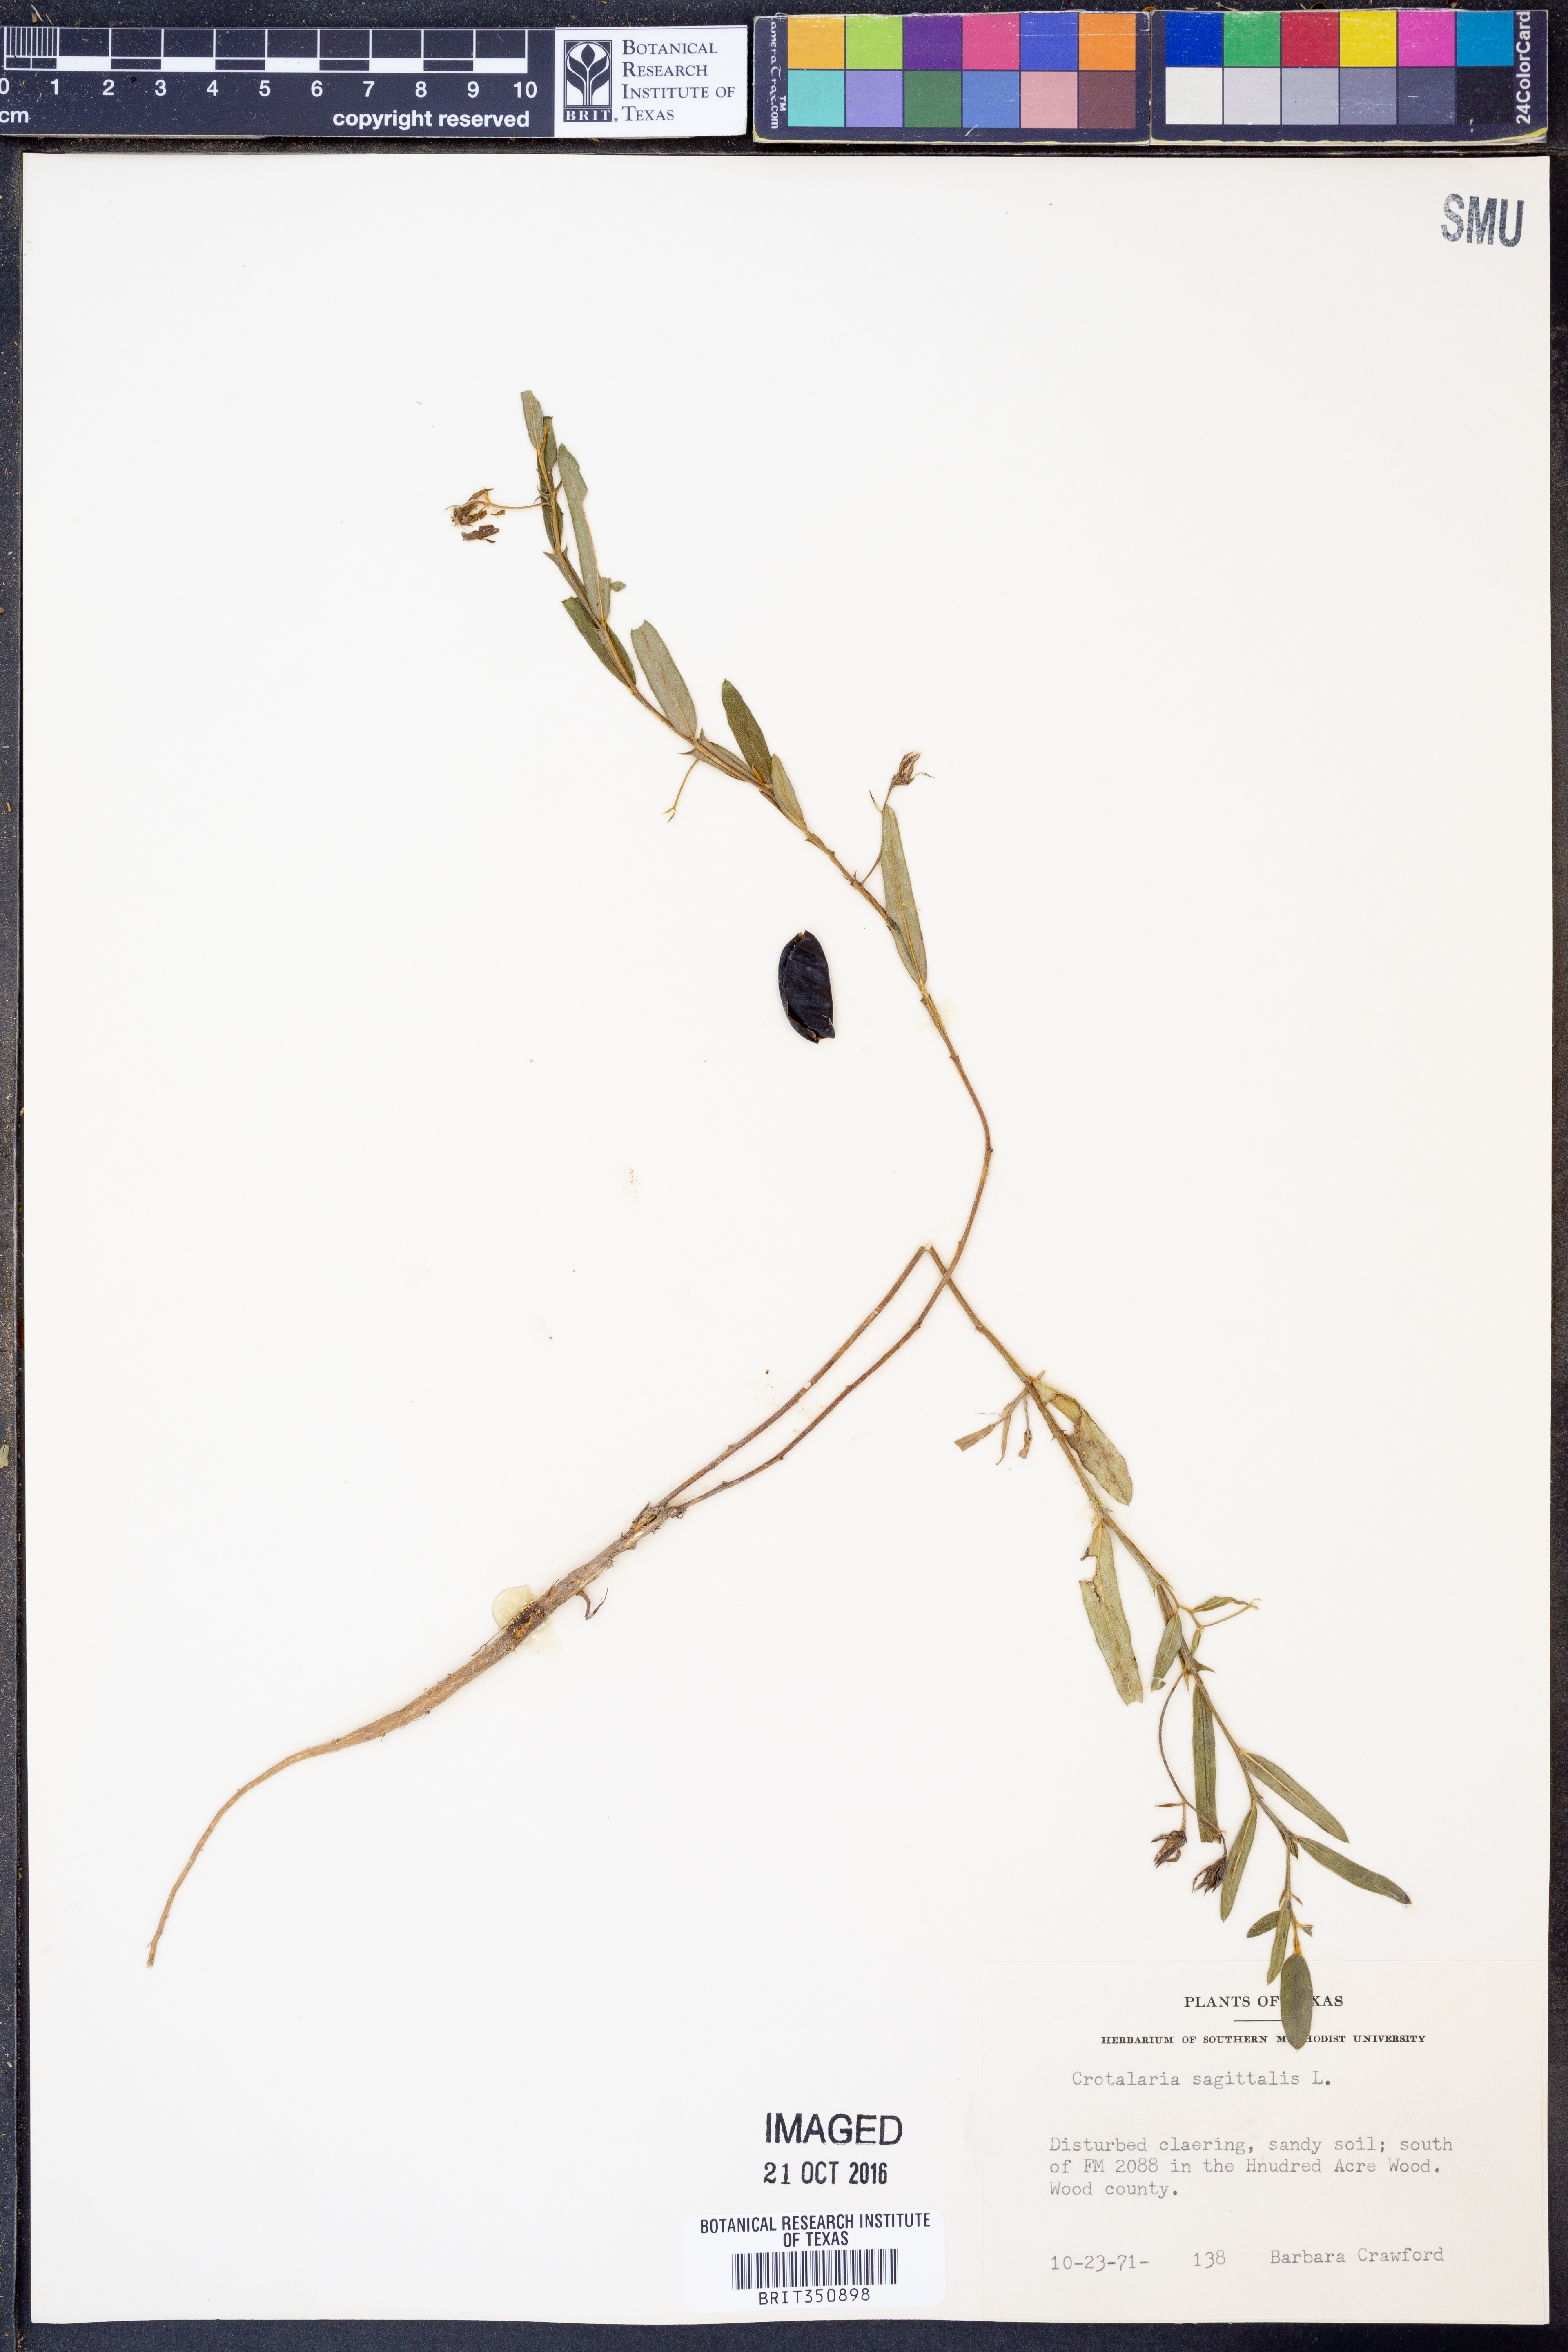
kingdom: Plantae
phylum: Tracheophyta
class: Magnoliopsida
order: Fabales
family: Fabaceae
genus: Crotalaria
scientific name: Crotalaria sagittalis
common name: Arrowhead rattlebox
